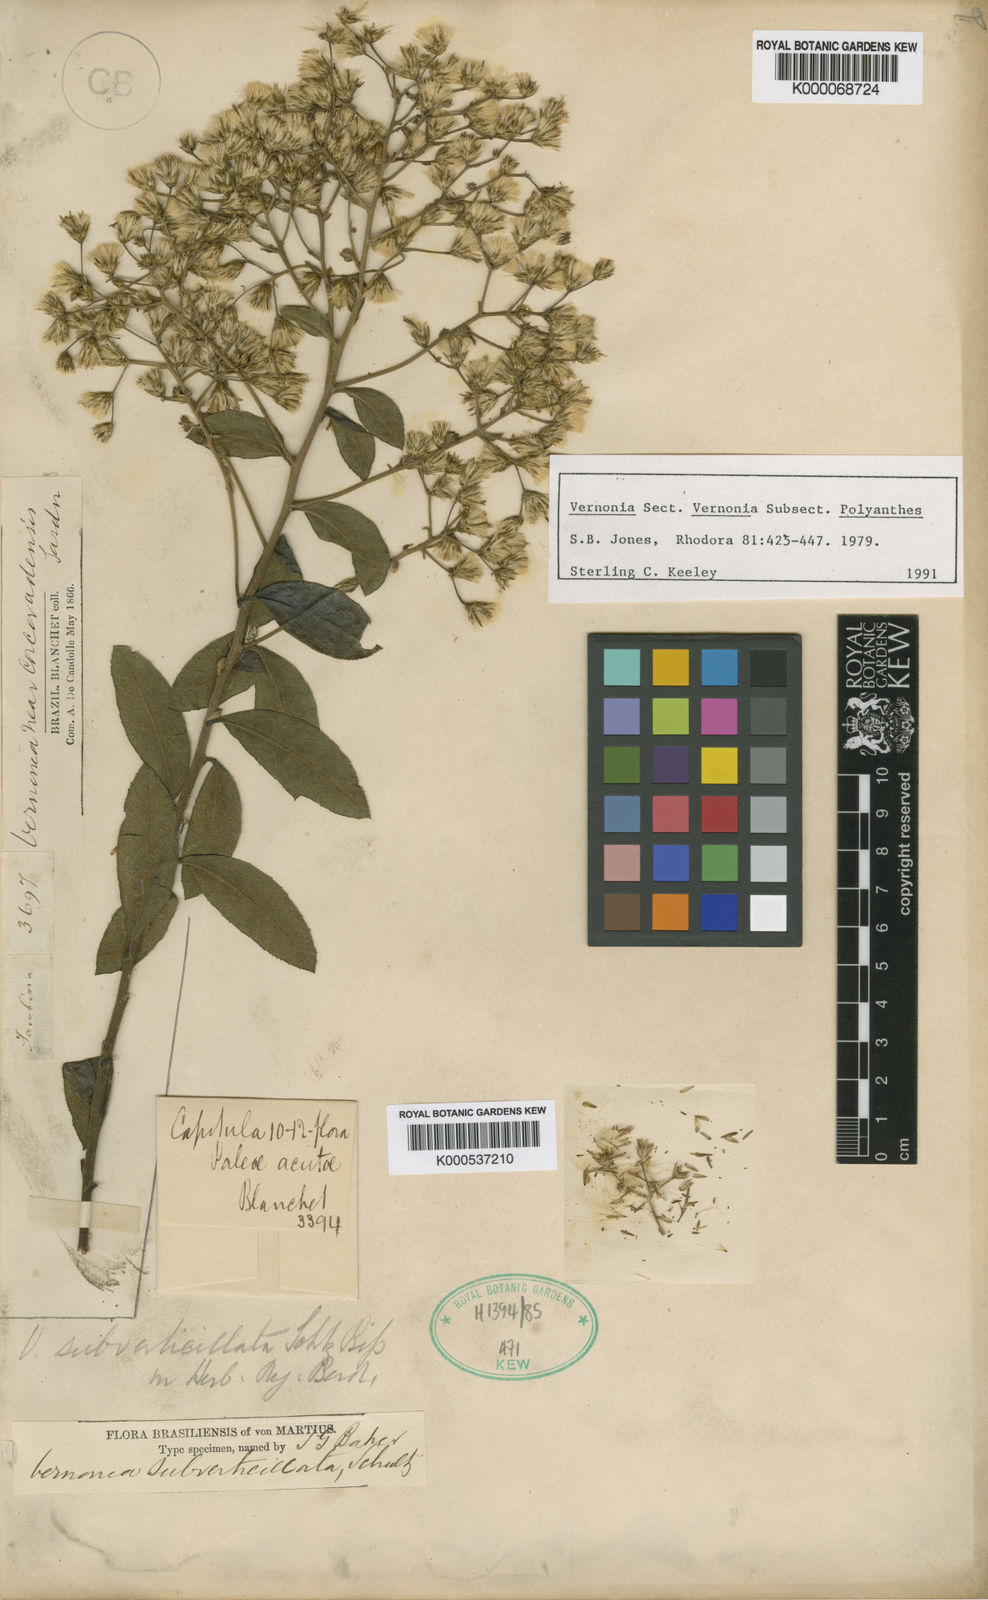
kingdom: Plantae
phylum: Tracheophyta
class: Magnoliopsida
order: Asterales
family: Asteraceae
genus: Vernonia
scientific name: Vernonia
